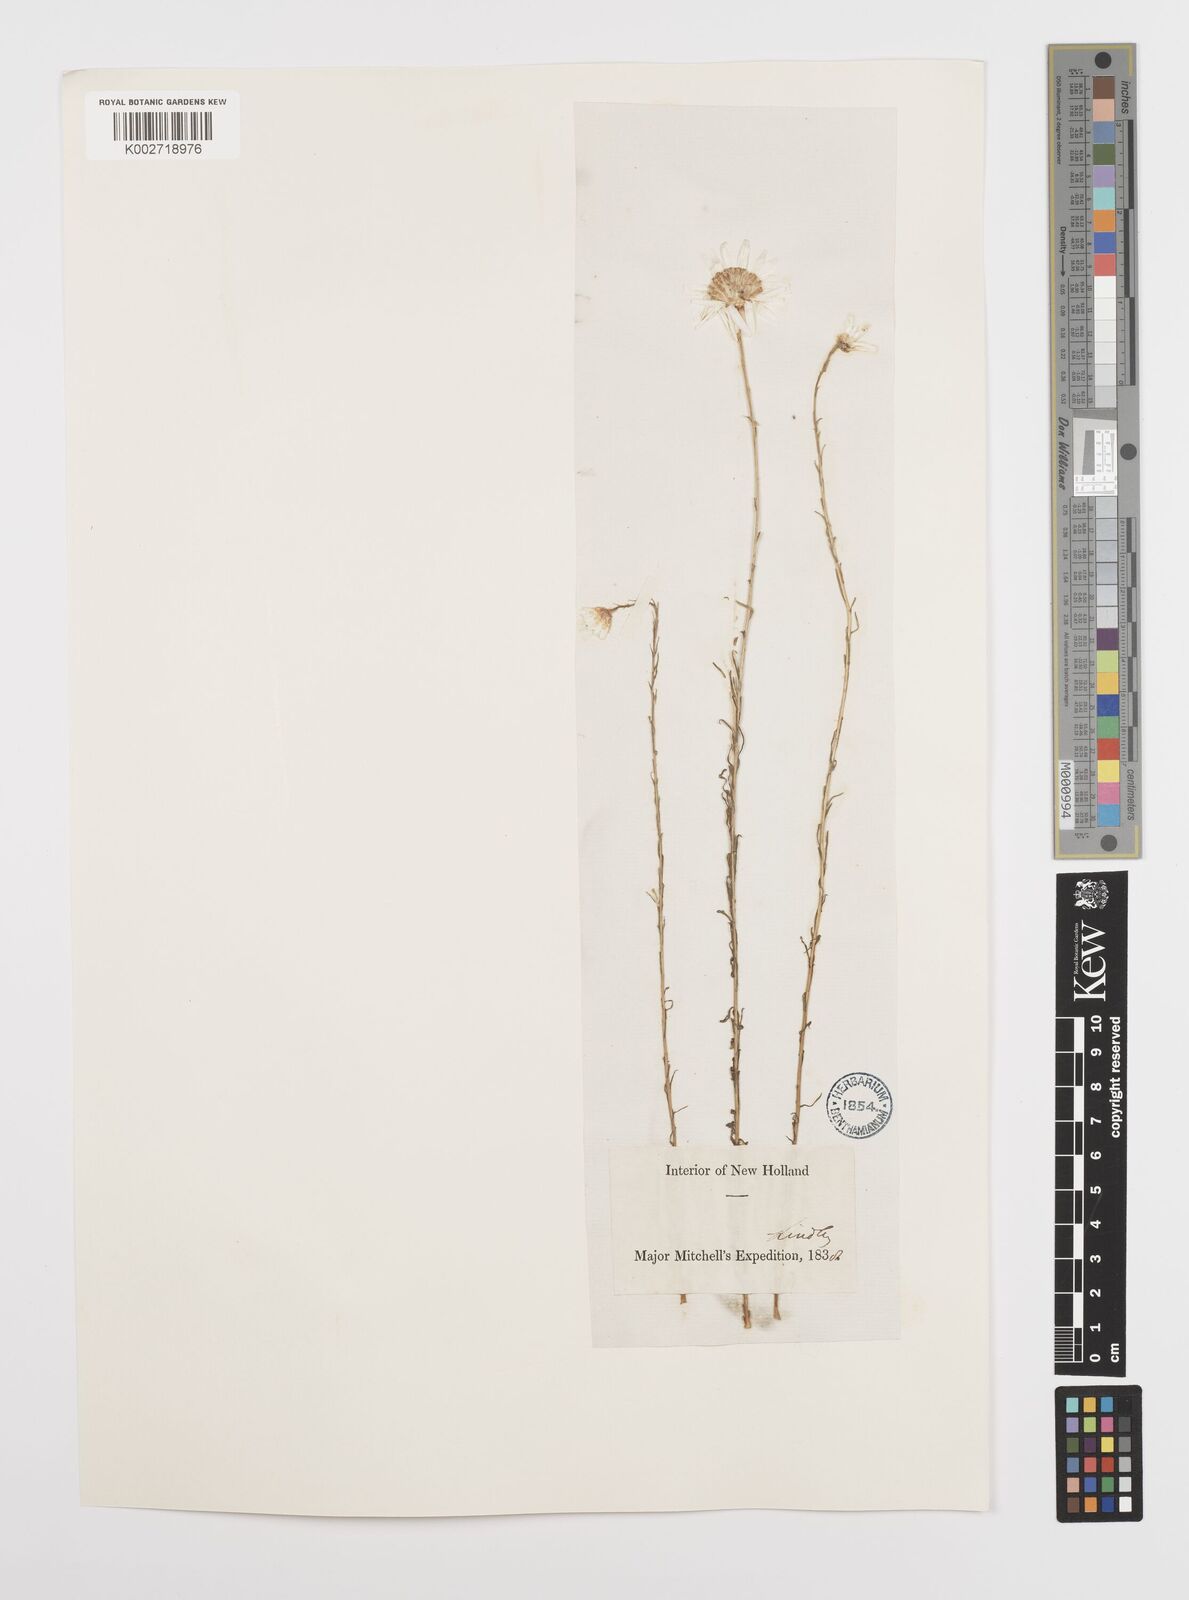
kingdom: Plantae
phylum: Tracheophyta
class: Magnoliopsida
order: Asterales
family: Asteraceae
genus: Rhodanthe
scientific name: Rhodanthe anthemoides
